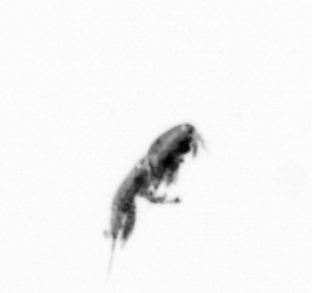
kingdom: Animalia
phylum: Arthropoda
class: Copepoda
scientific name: Copepoda
